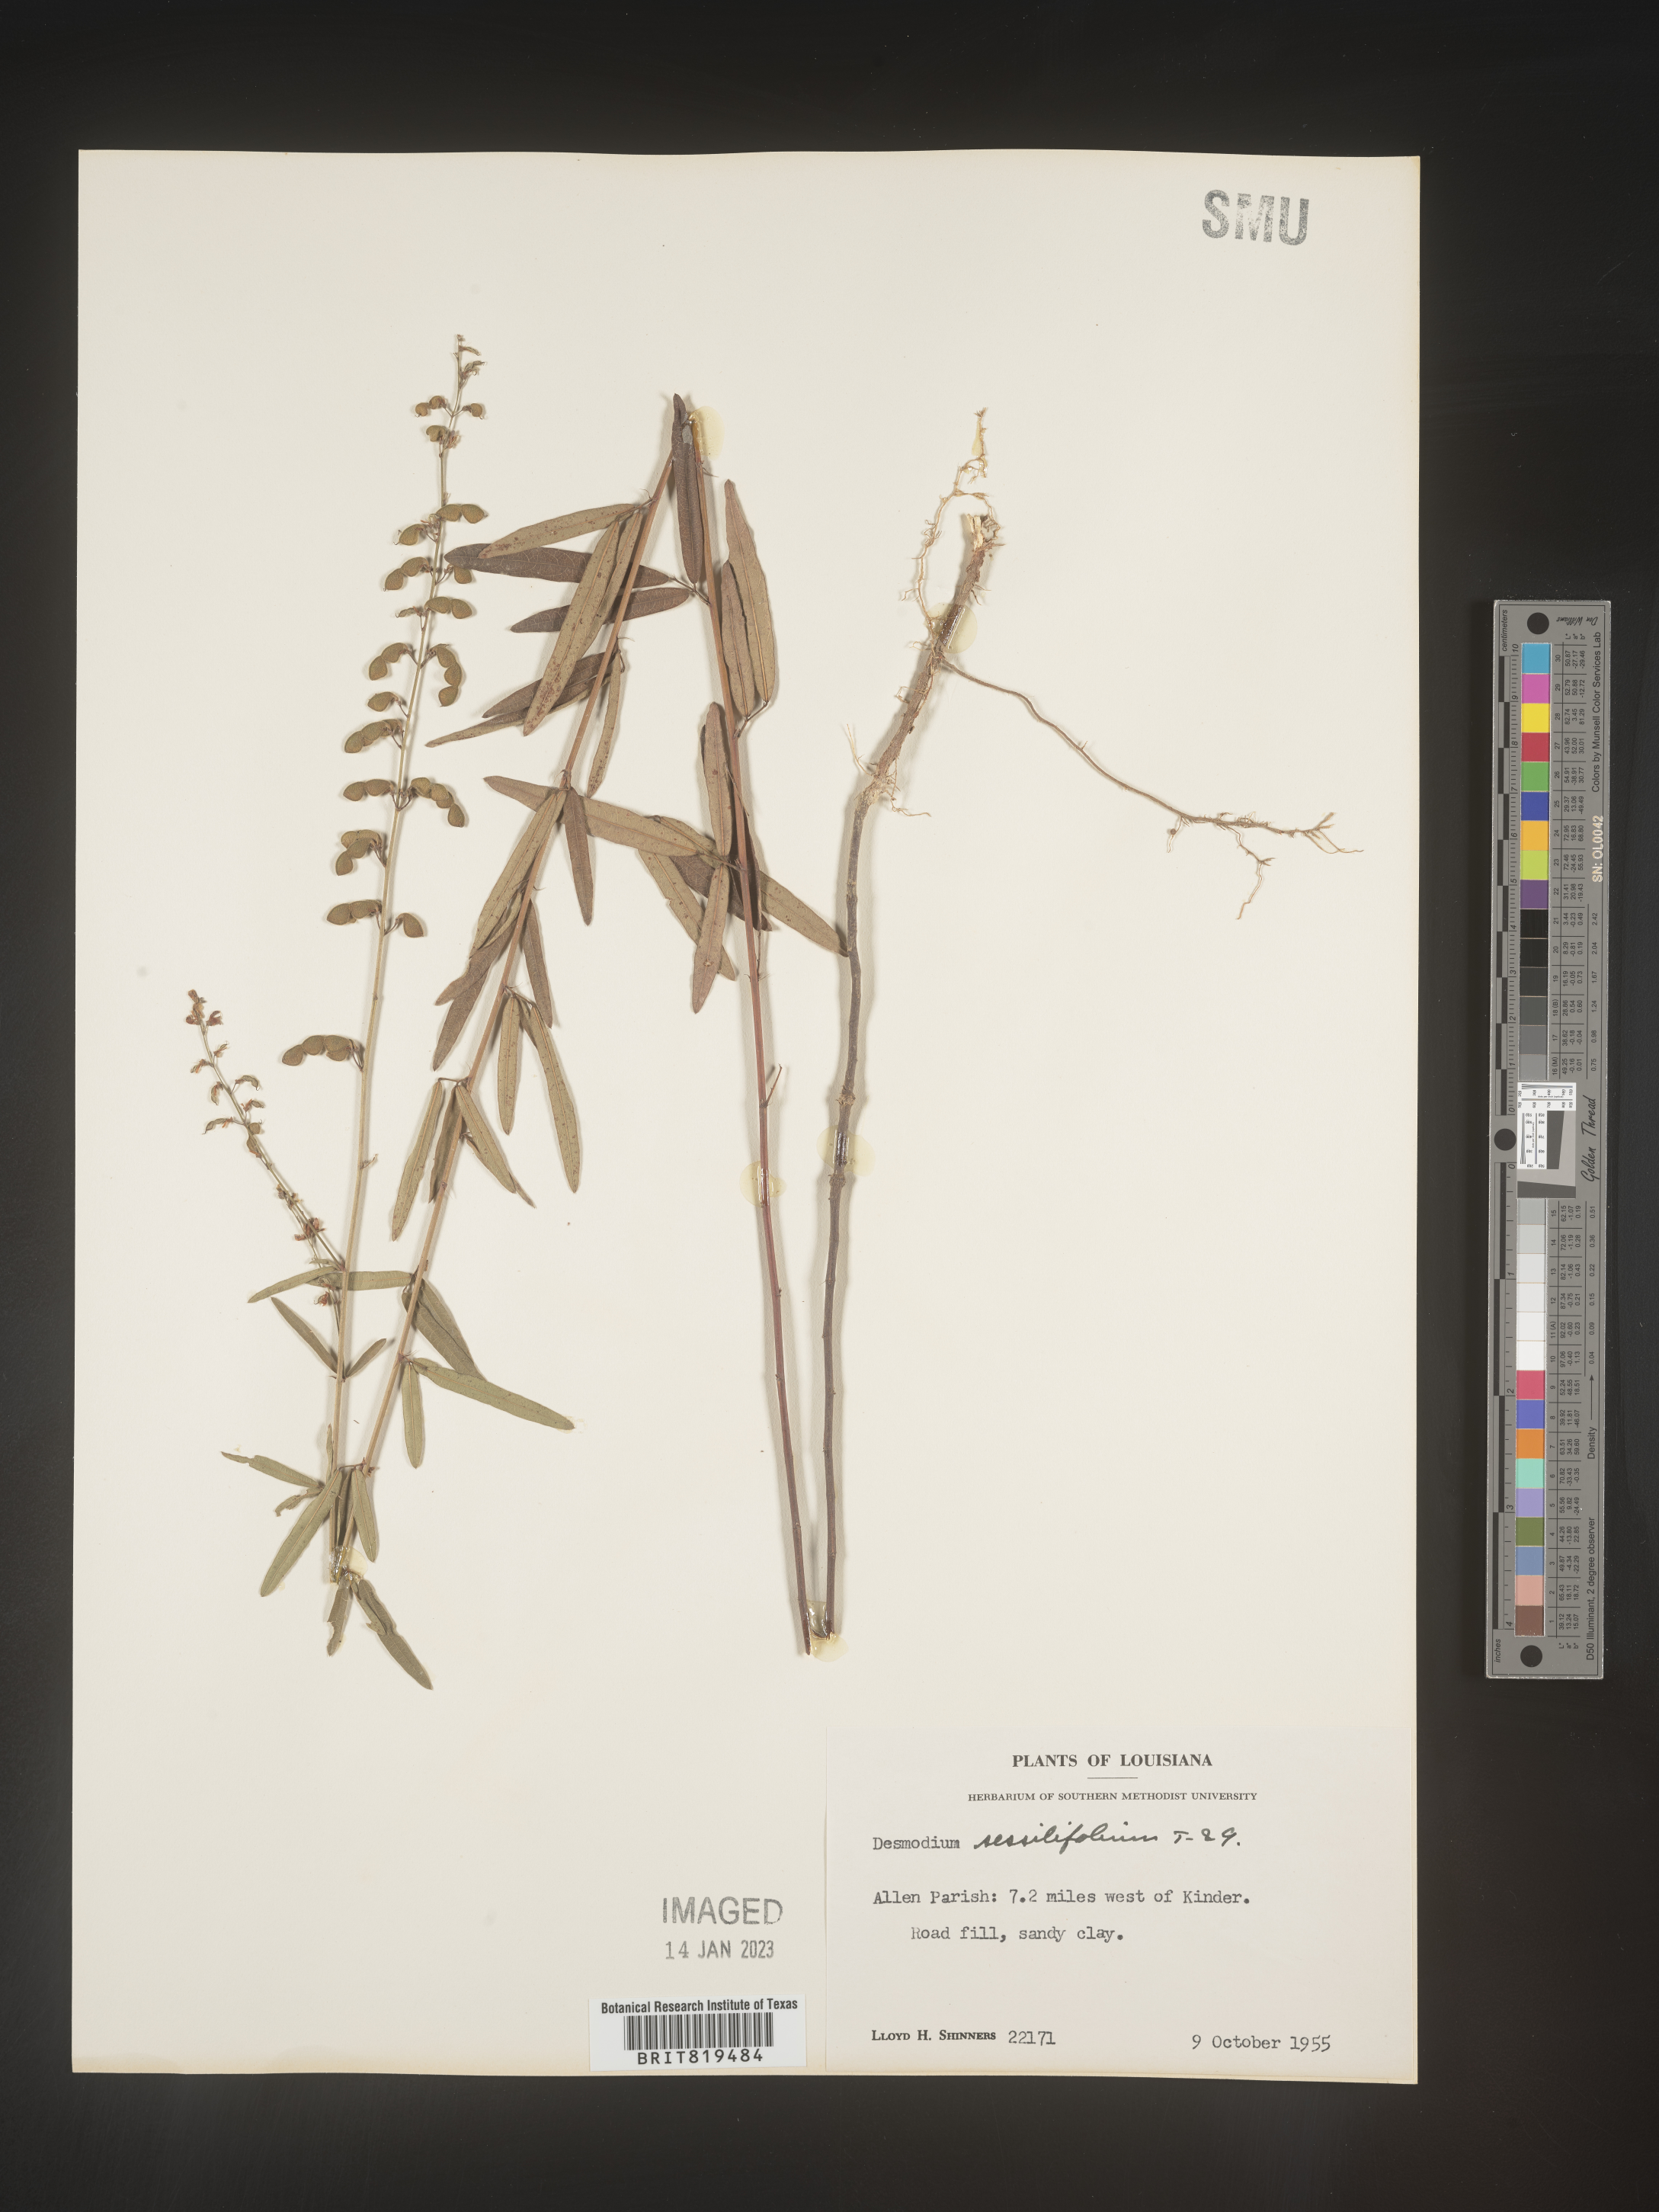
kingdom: Plantae
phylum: Tracheophyta
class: Magnoliopsida
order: Fabales
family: Fabaceae
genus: Desmodium
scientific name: Desmodium sessilifolium
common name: Sessile tick-clover
